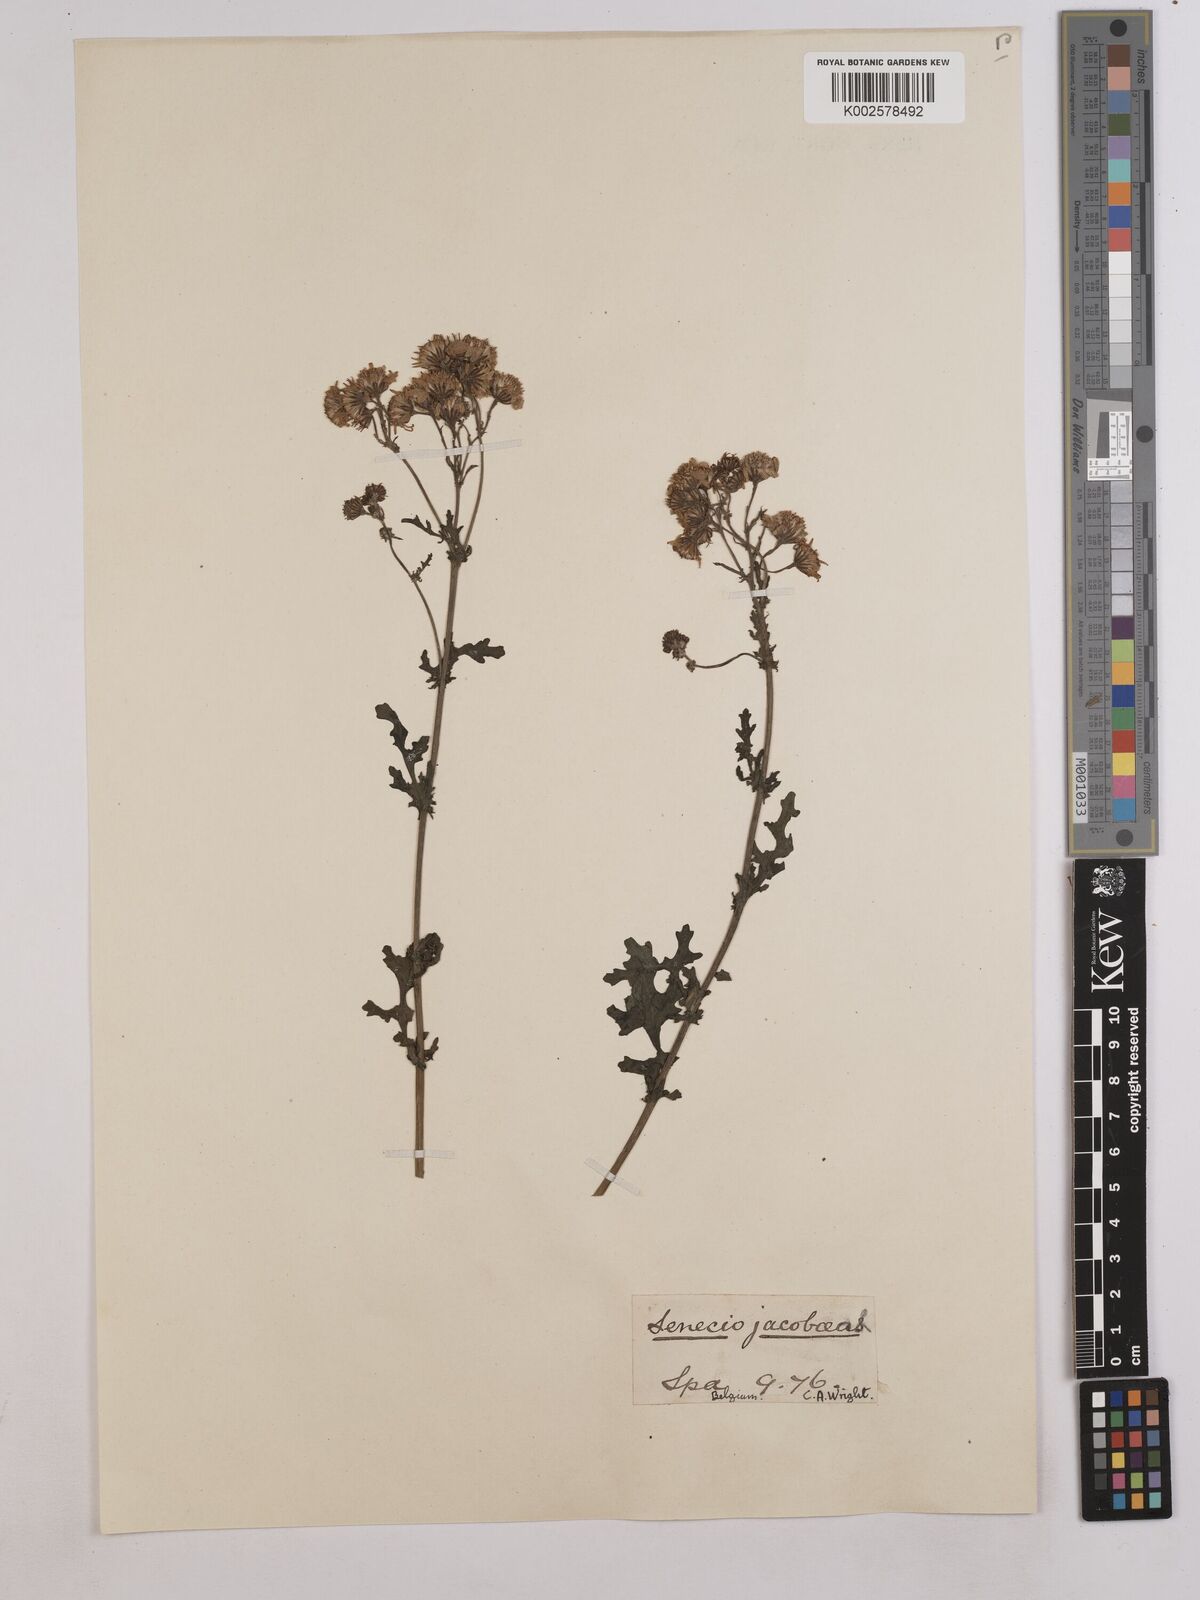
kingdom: Plantae
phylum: Tracheophyta
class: Magnoliopsida
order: Asterales
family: Asteraceae
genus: Jacobaea
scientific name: Jacobaea vulgaris
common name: Stinking willie
